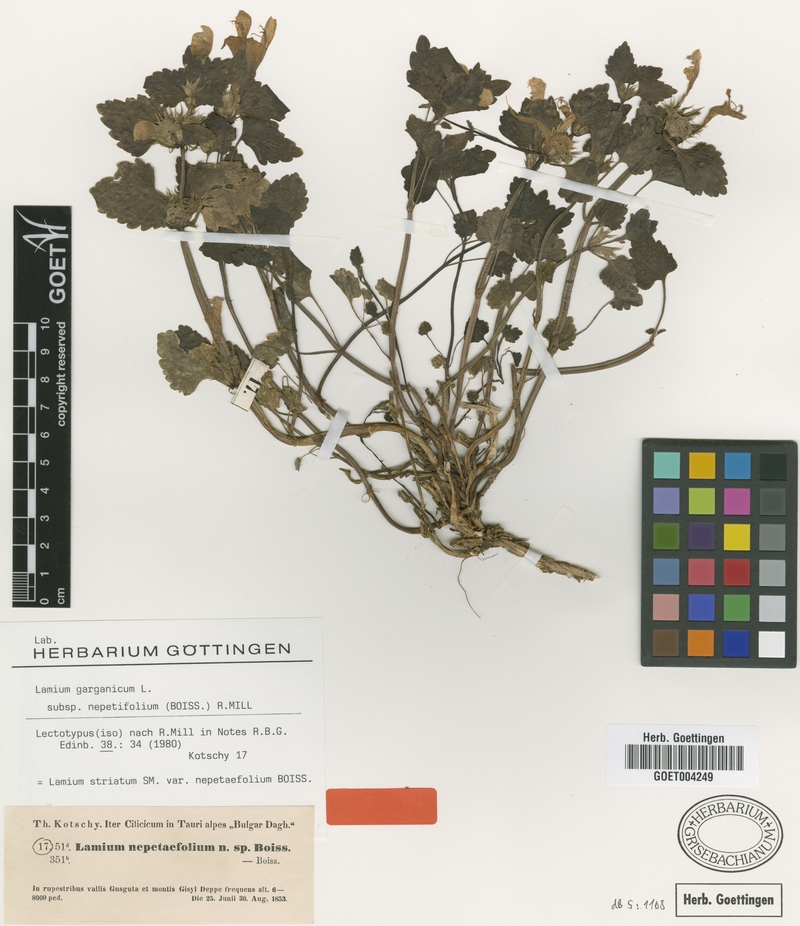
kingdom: Plantae
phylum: Tracheophyta
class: Magnoliopsida
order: Lamiales
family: Lamiaceae
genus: Lamium
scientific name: Lamium garganicum
